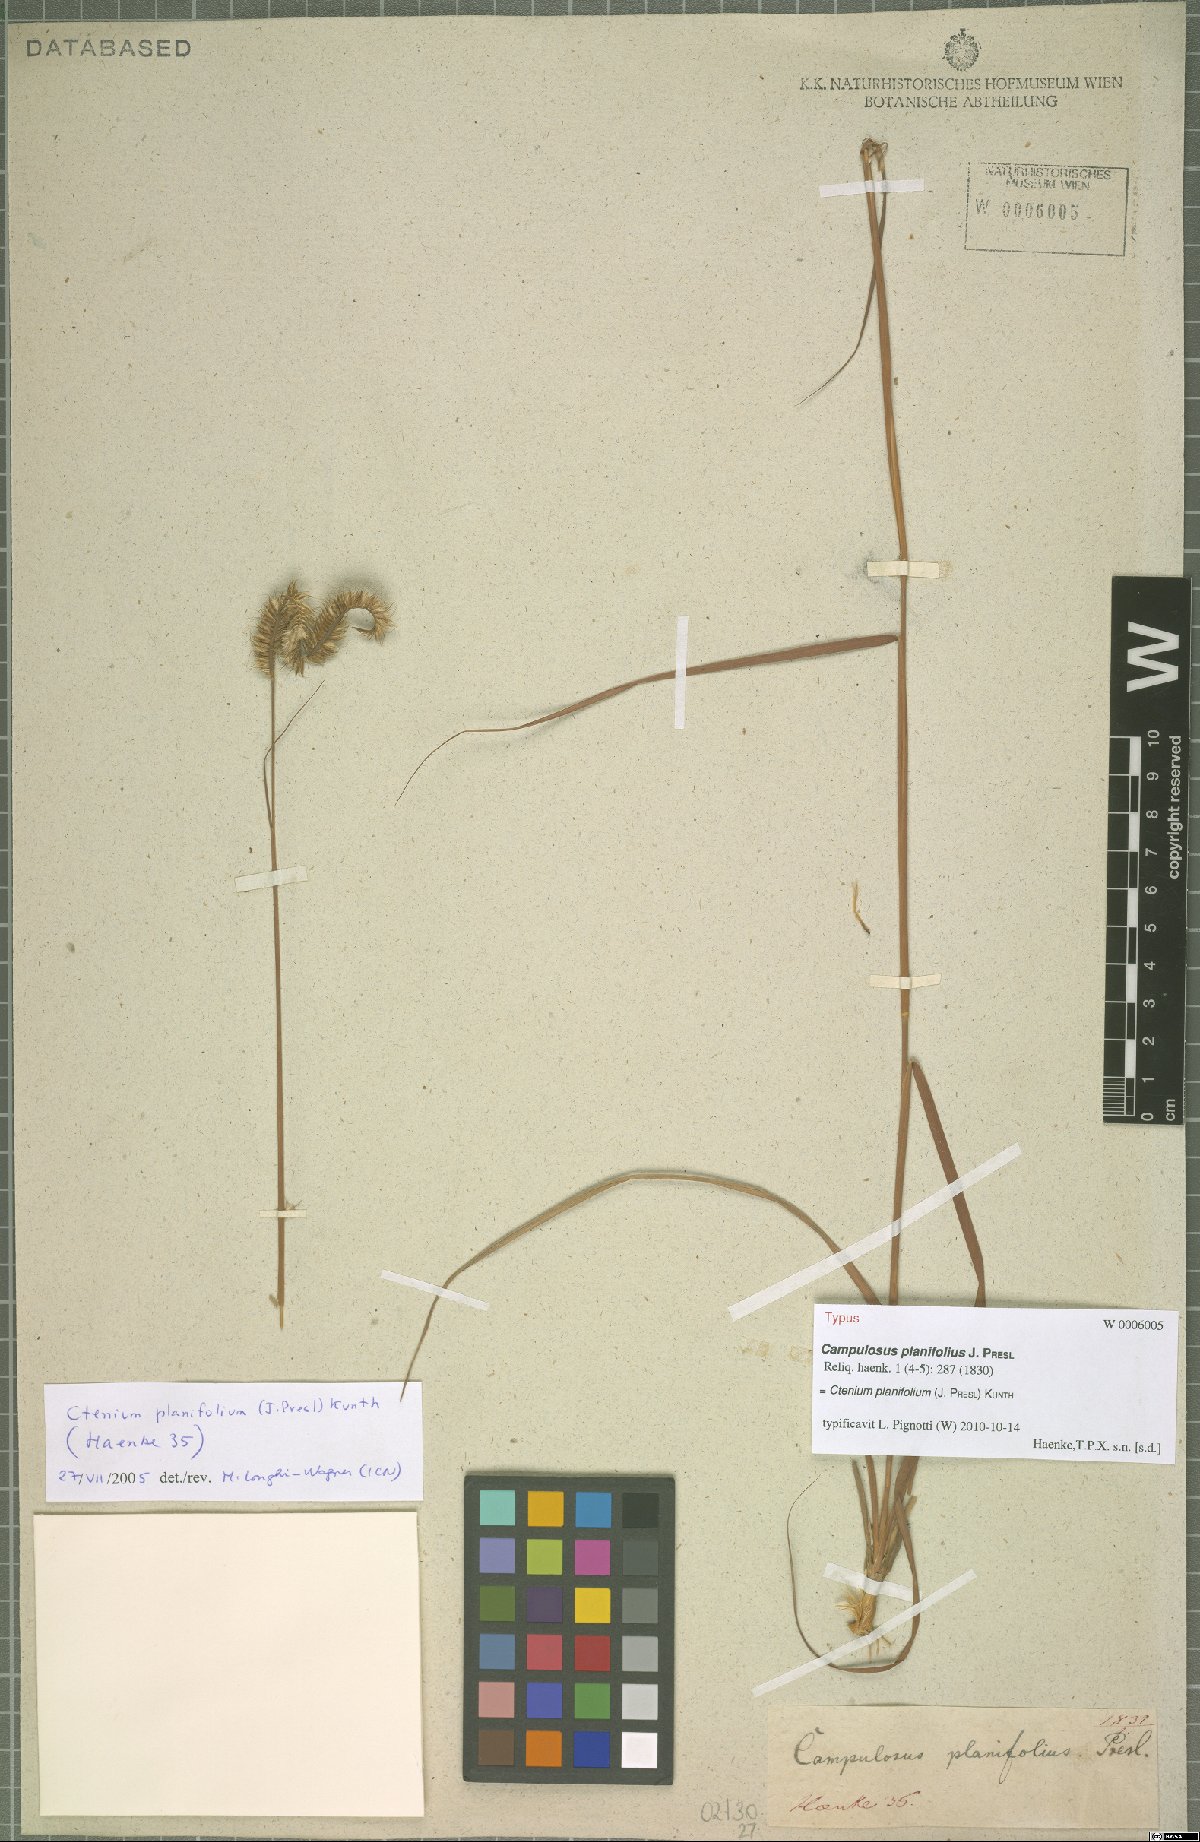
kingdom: Plantae
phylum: Tracheophyta
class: Liliopsida
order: Poales
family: Poaceae
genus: Ctenium
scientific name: Ctenium planifolium
